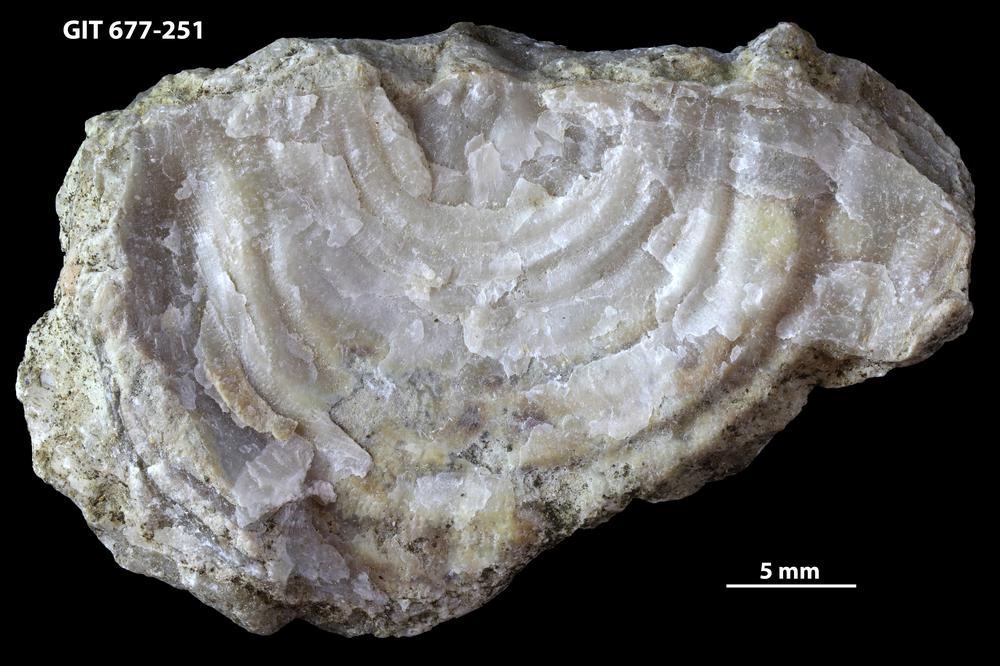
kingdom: Animalia
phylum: Brachiopoda
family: Leptaenidae
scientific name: Leptaenidae
